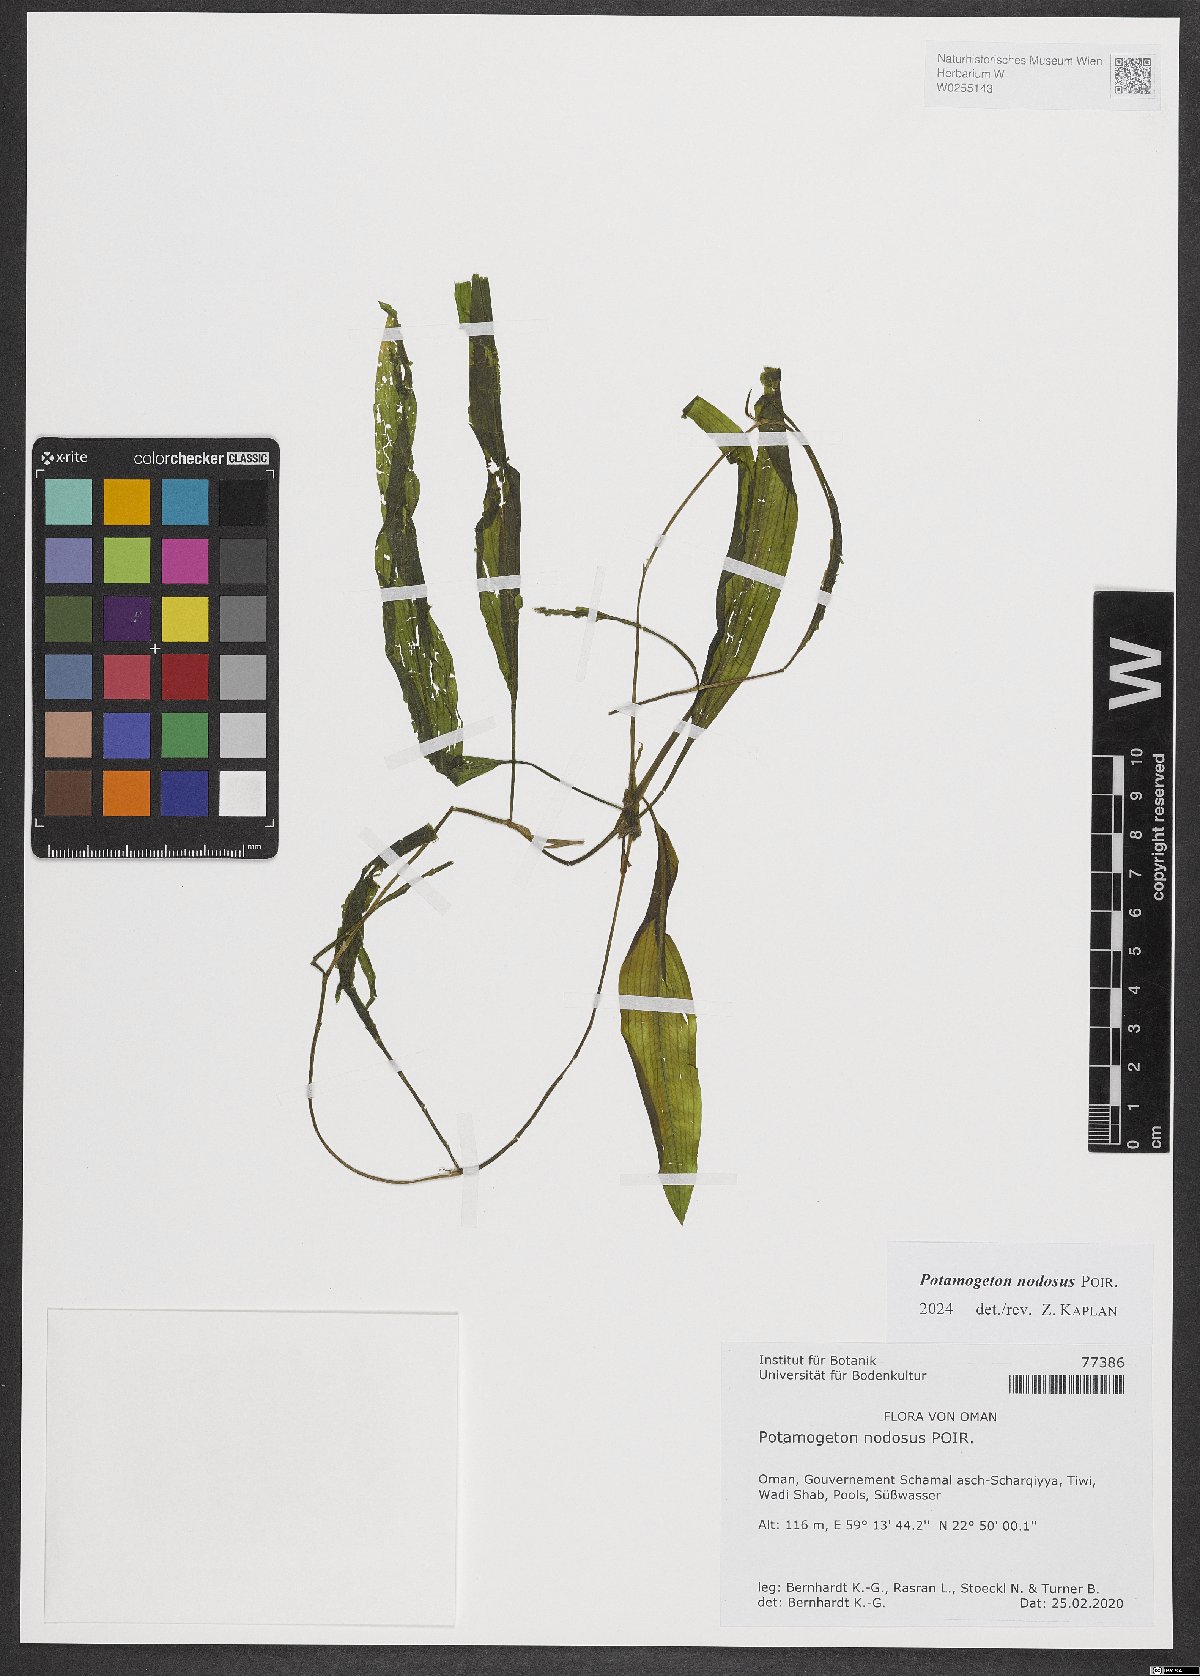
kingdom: Plantae
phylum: Tracheophyta
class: Liliopsida
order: Alismatales
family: Potamogetonaceae
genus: Potamogeton
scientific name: Potamogeton nodosus
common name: Loddon pondweed
